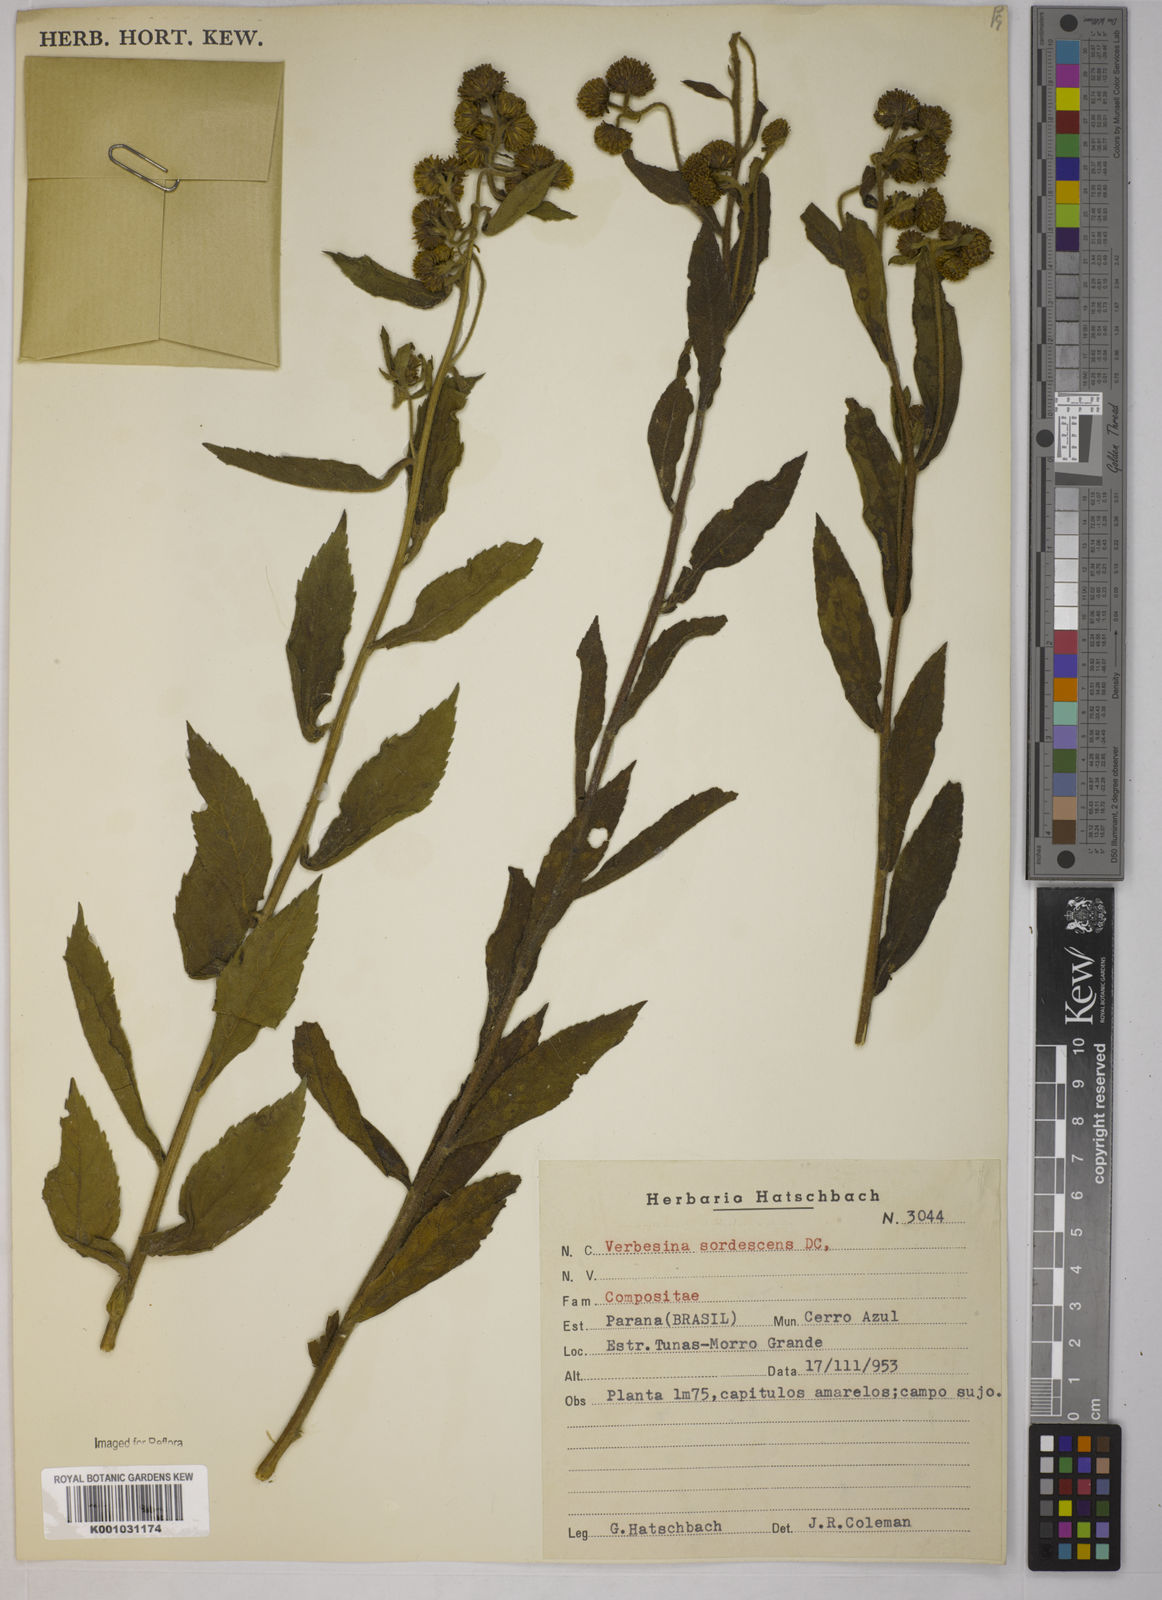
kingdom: Plantae
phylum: Tracheophyta
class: Magnoliopsida
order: Asterales
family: Asteraceae
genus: Verbesina
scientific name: Verbesina sordescens
